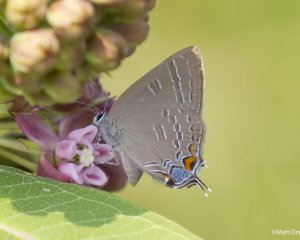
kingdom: Animalia
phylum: Arthropoda
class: Insecta
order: Lepidoptera
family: Lycaenidae
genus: Satyrium
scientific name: Satyrium calanus
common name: Banded Hairstreak
